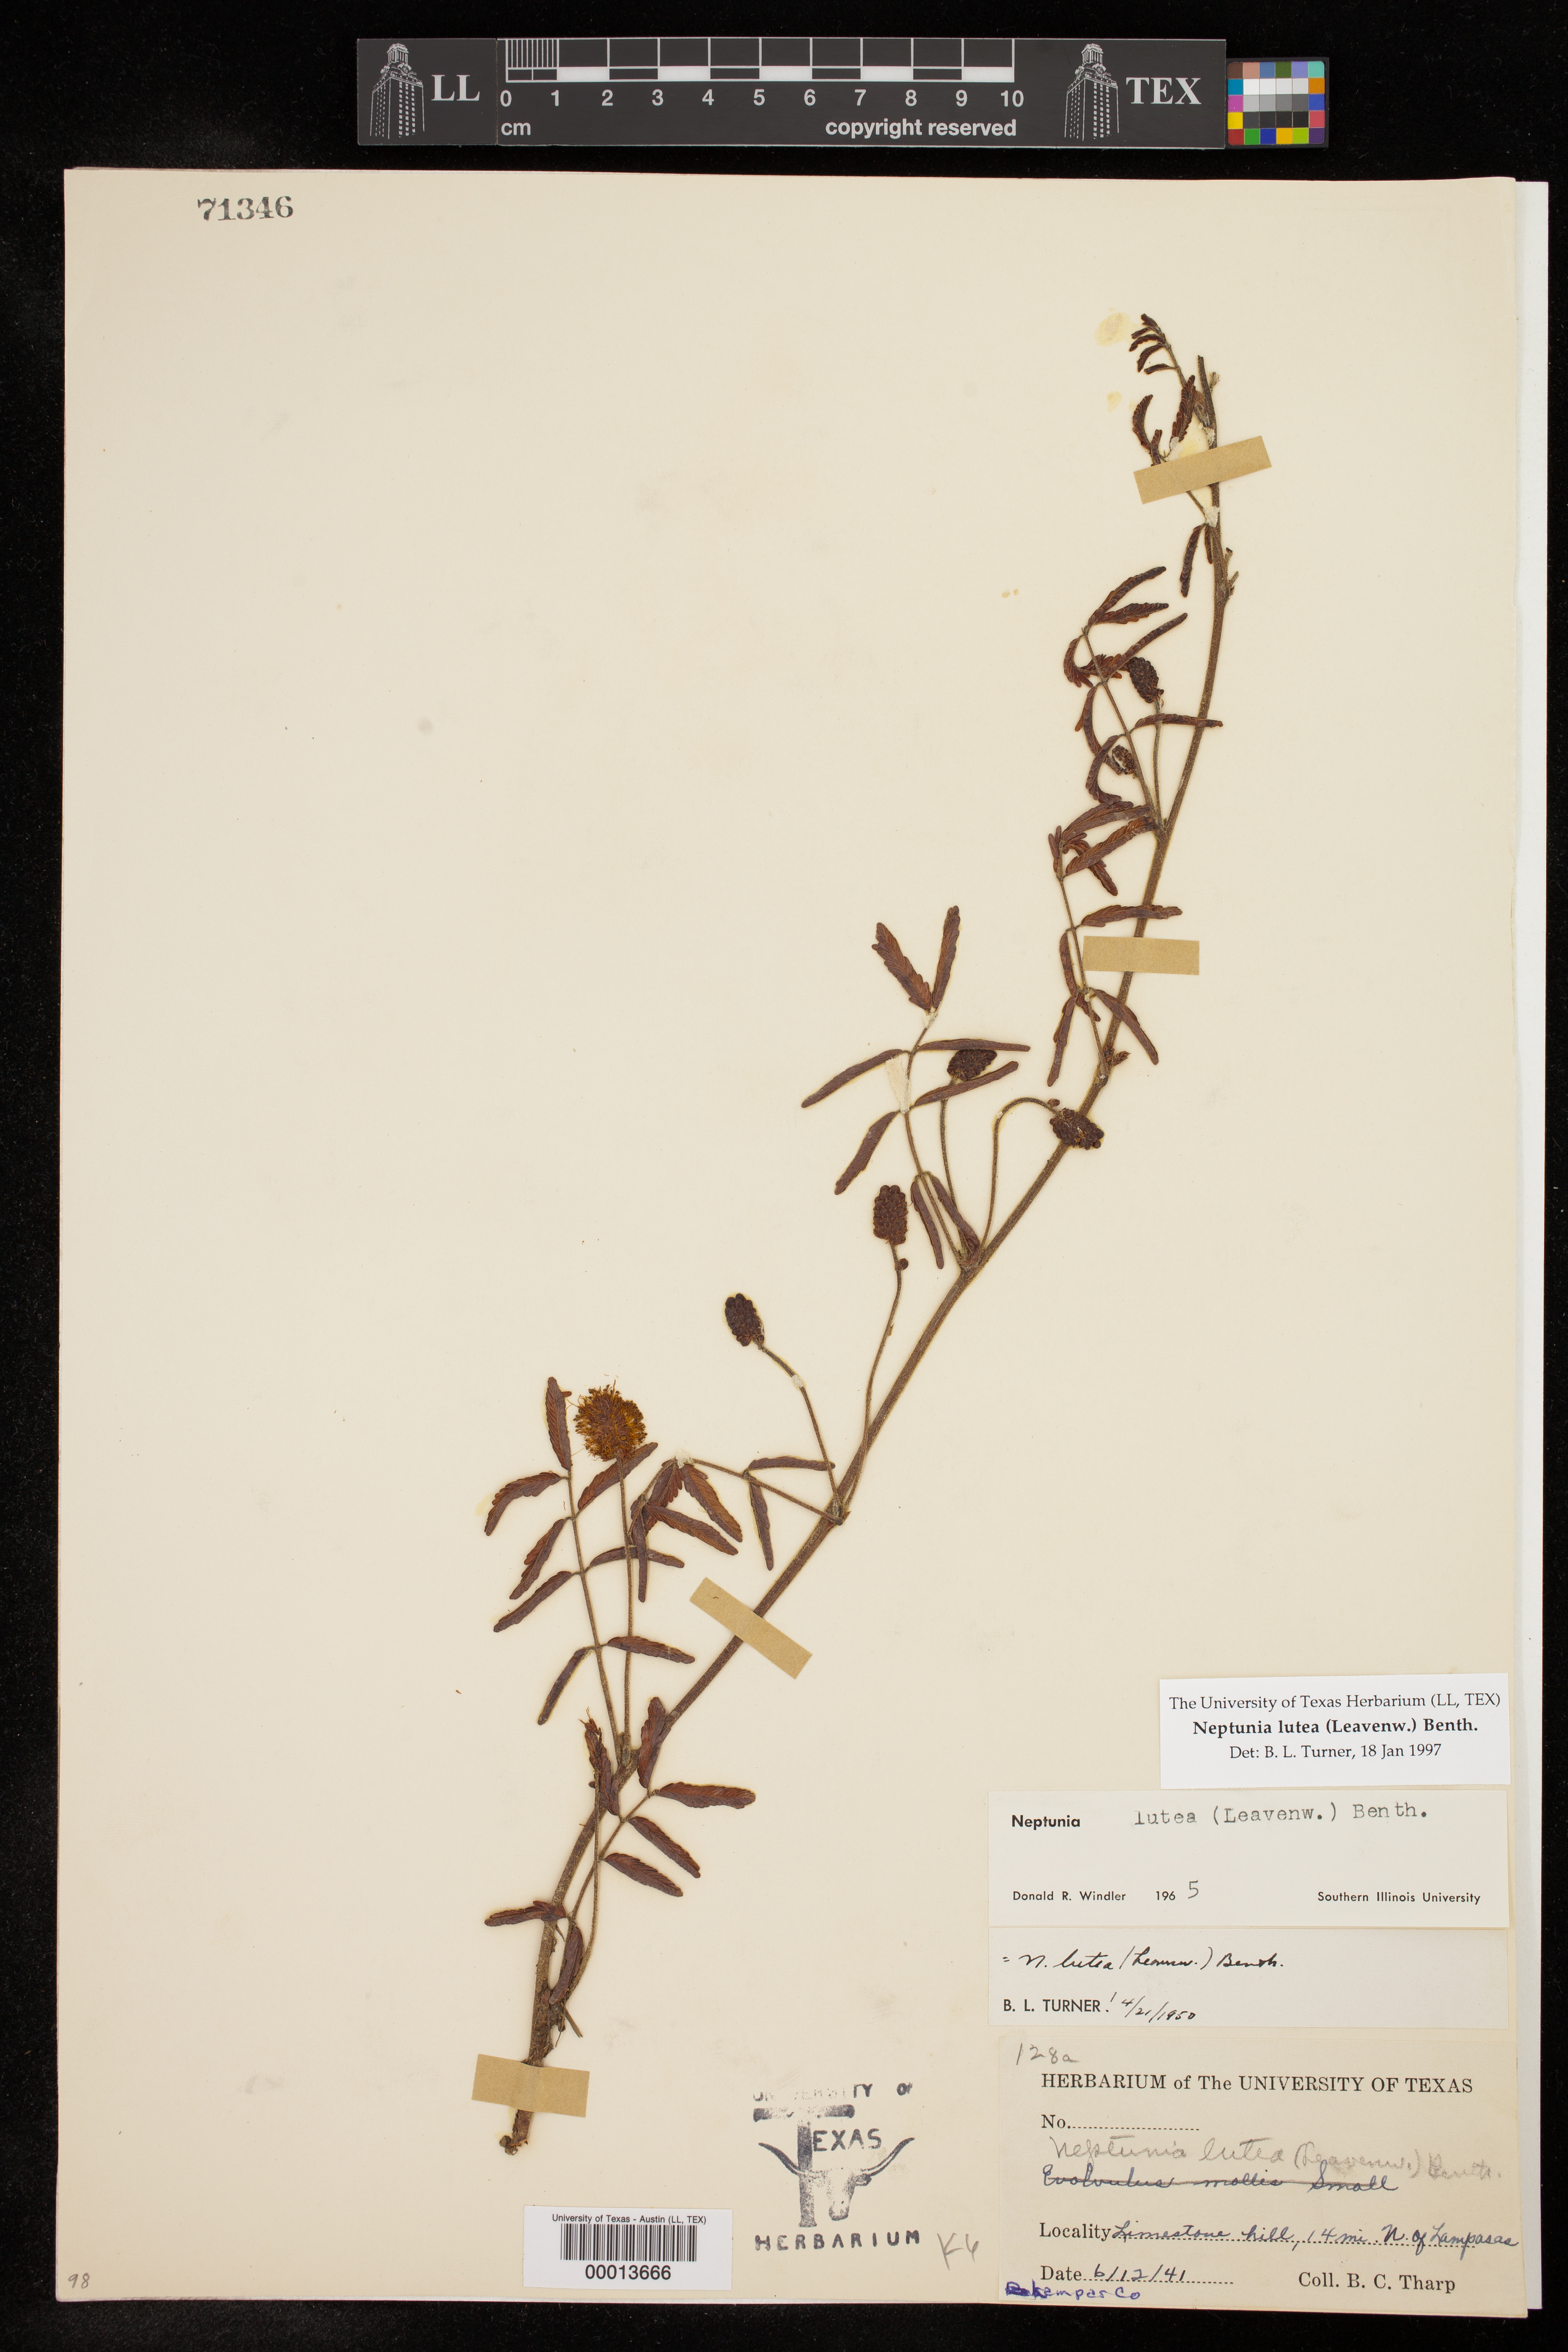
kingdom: Plantae
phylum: Tracheophyta
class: Magnoliopsida
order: Fabales
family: Fabaceae
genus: Neptunia
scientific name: Neptunia lutea
